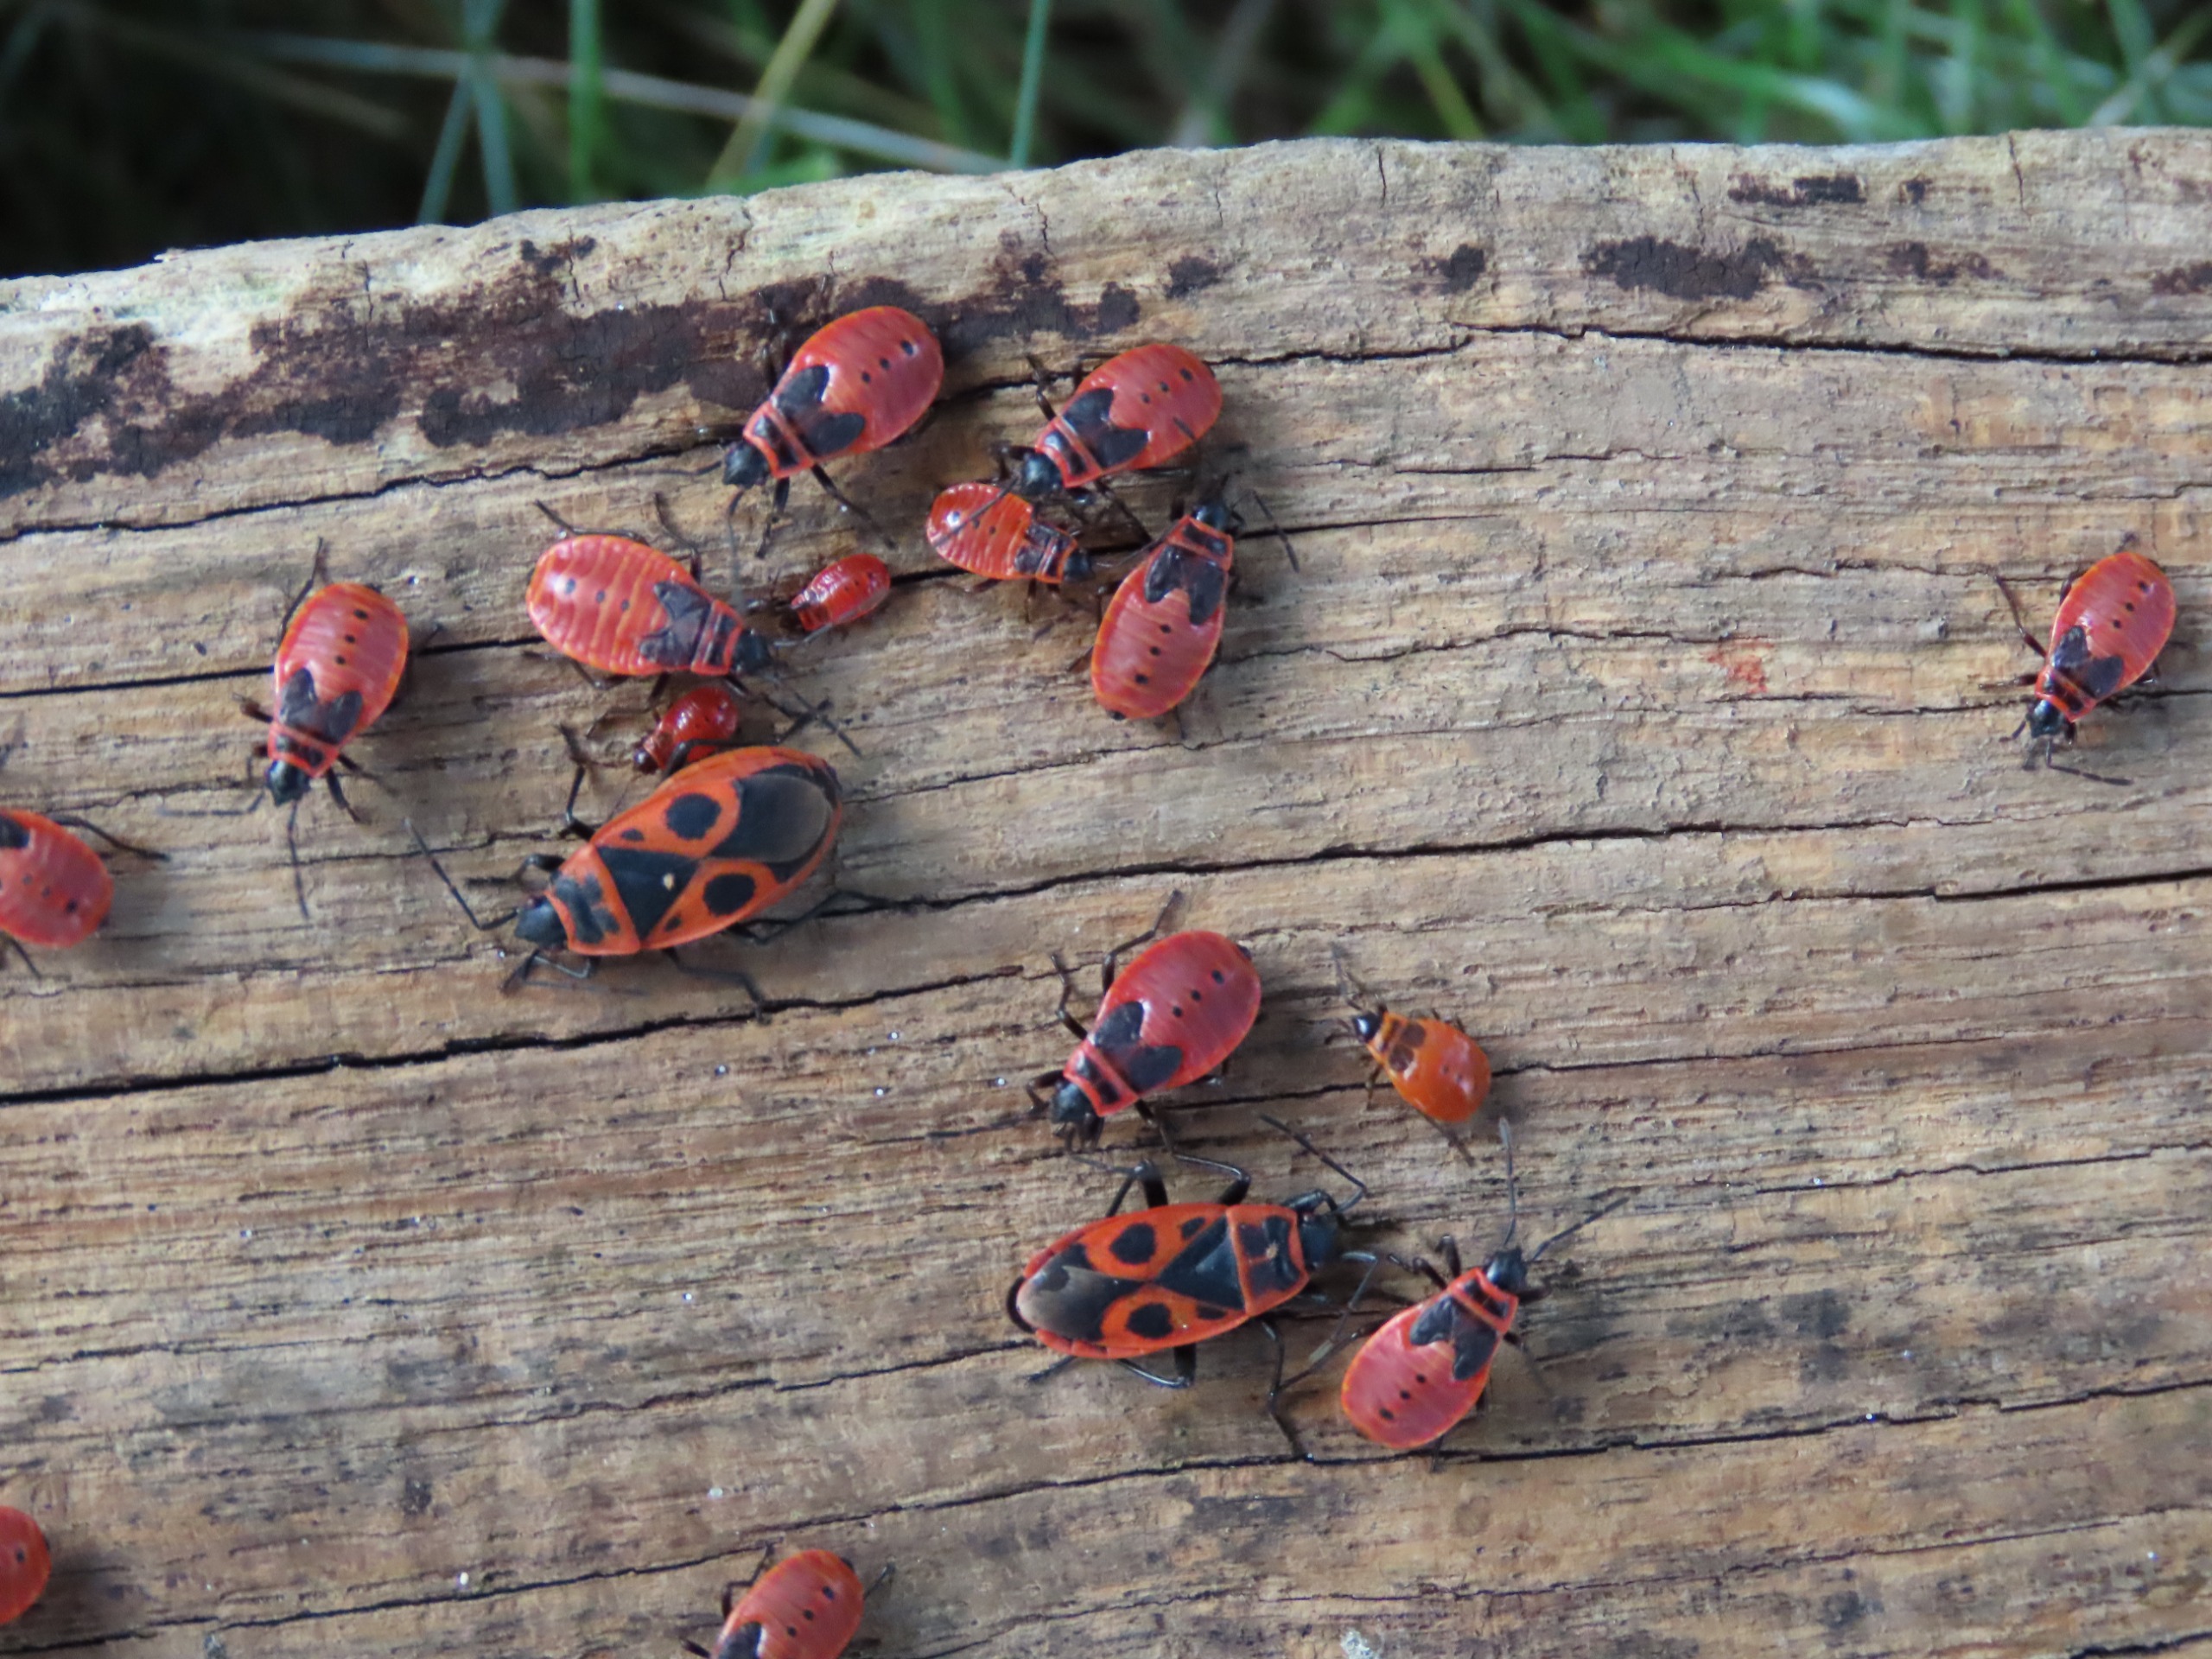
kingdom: Animalia
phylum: Arthropoda
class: Insecta
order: Hemiptera
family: Pyrrhocoridae
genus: Pyrrhocoris
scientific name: Pyrrhocoris apterus
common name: Ildtæge
